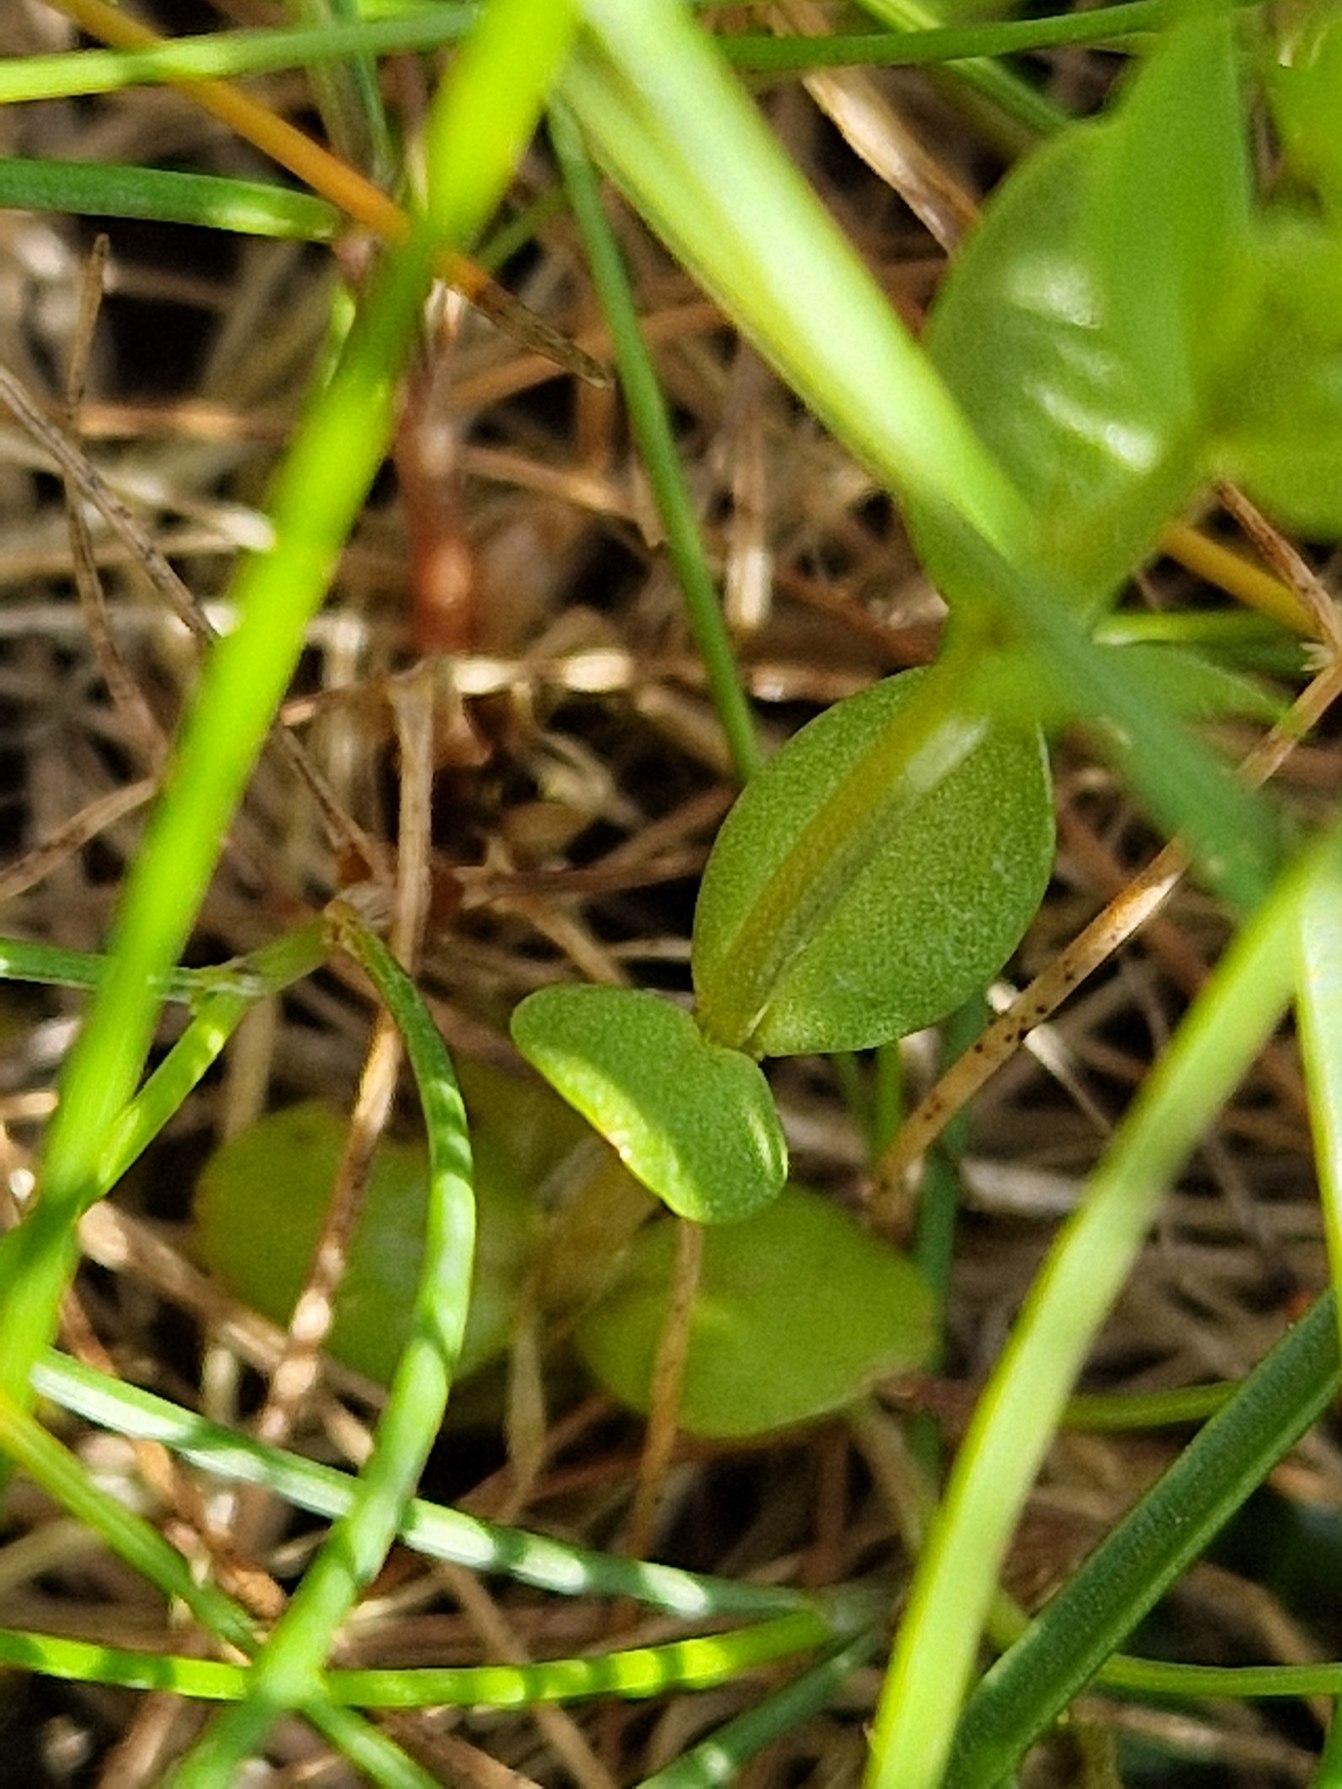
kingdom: Plantae
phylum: Tracheophyta
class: Magnoliopsida
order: Gentianales
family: Gentianaceae
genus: Centaurium
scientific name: Centaurium pulchellum
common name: Liden tusindgylden
